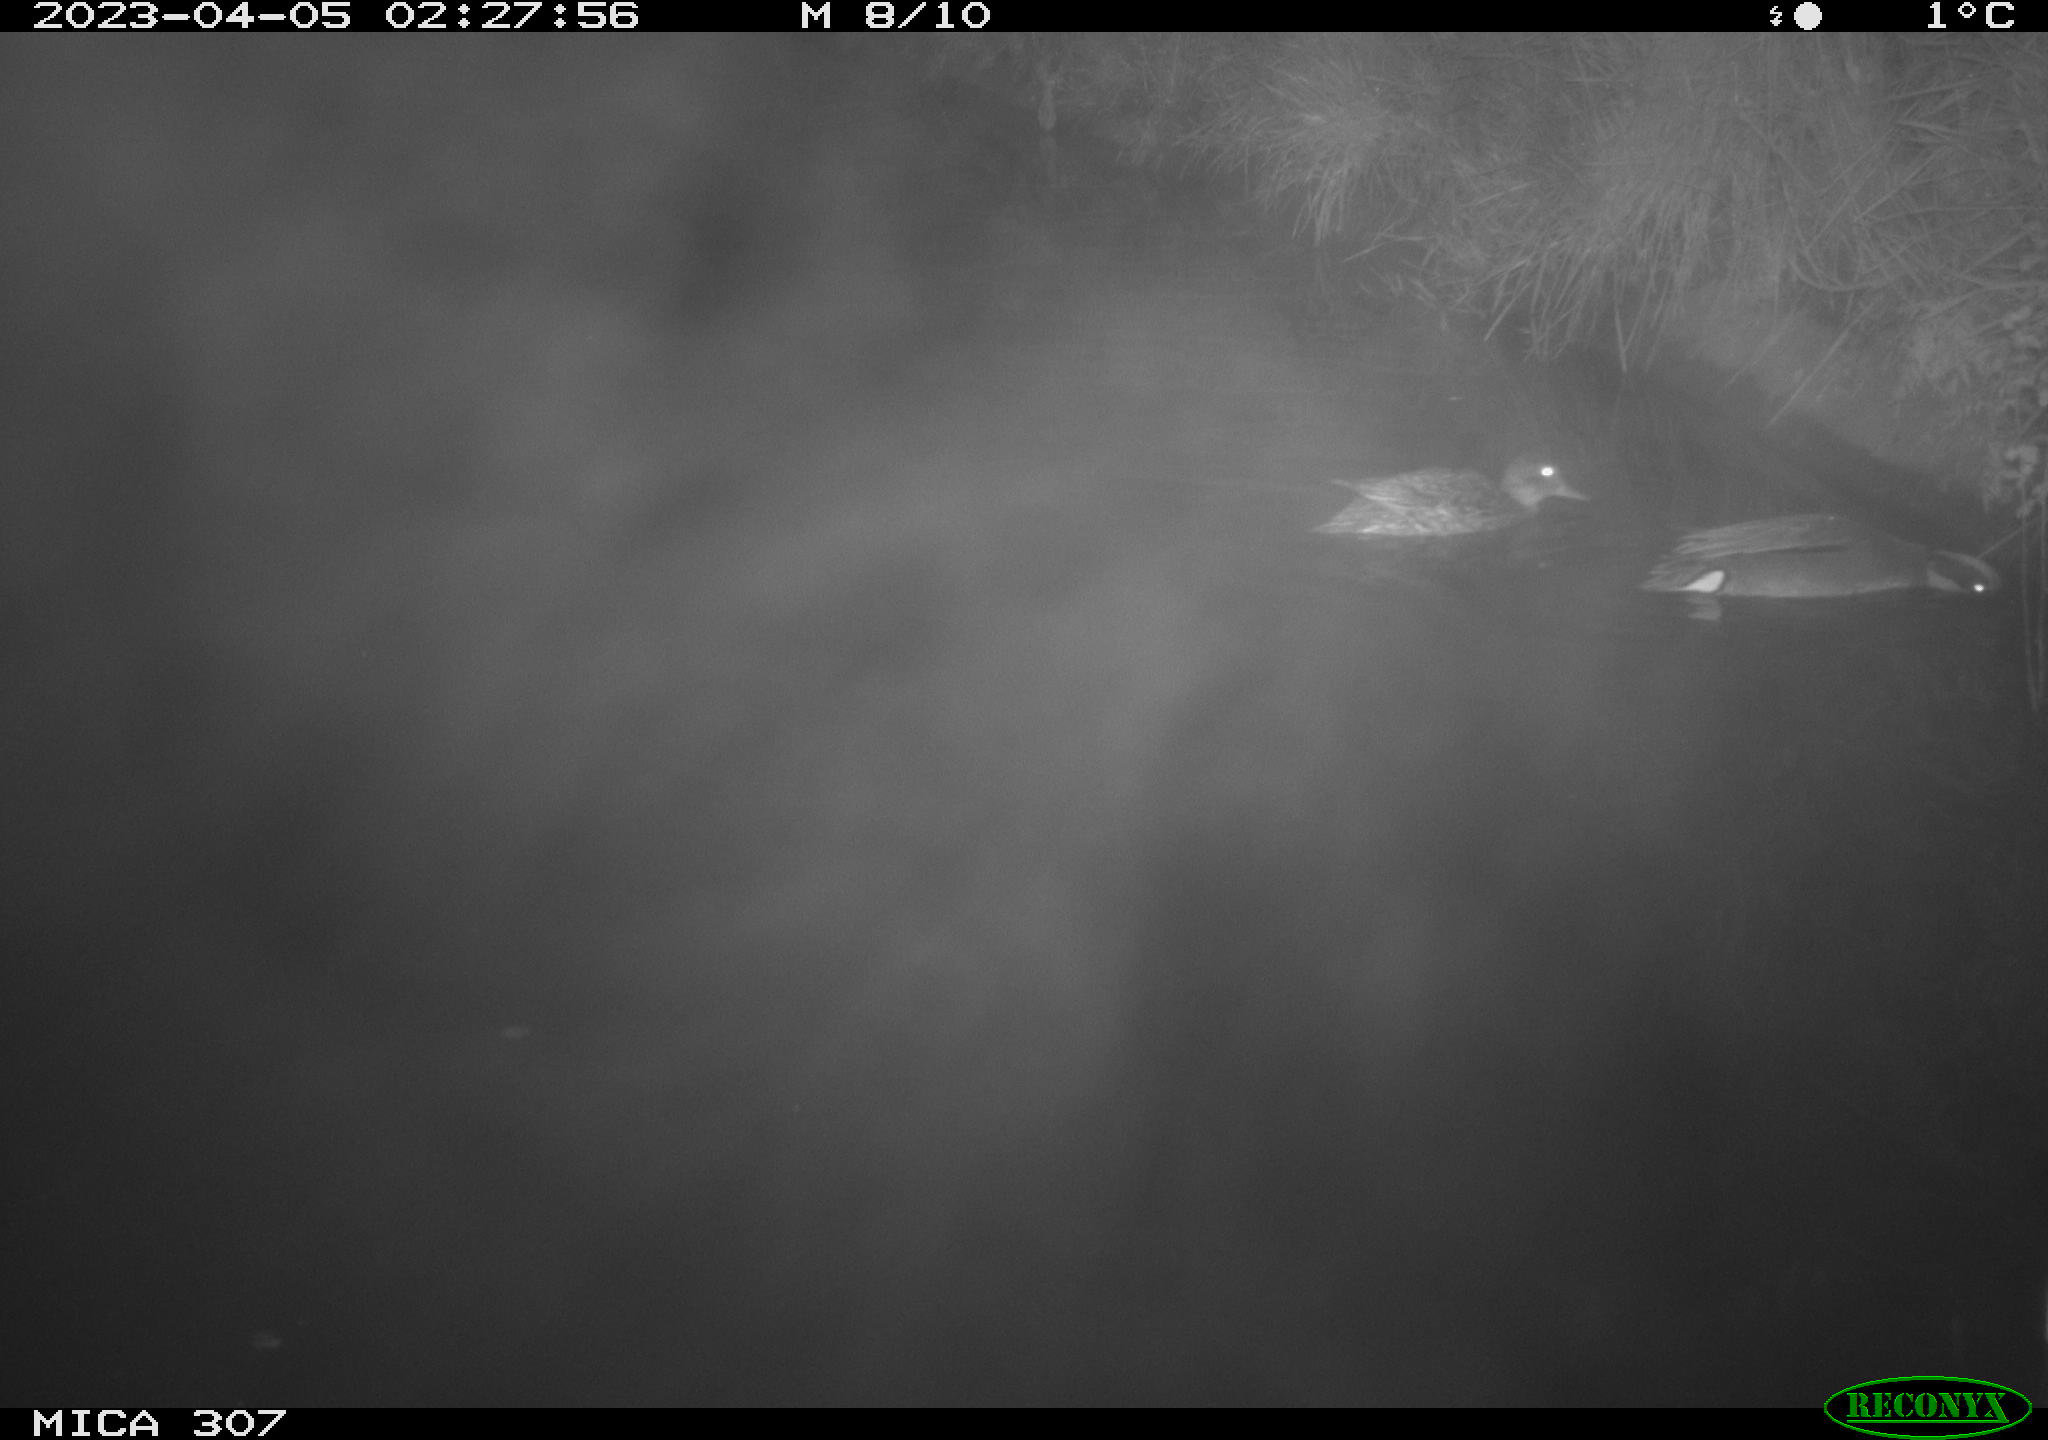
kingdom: Animalia
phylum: Chordata
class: Aves
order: Anseriformes
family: Anatidae
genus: Anas
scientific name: Anas
